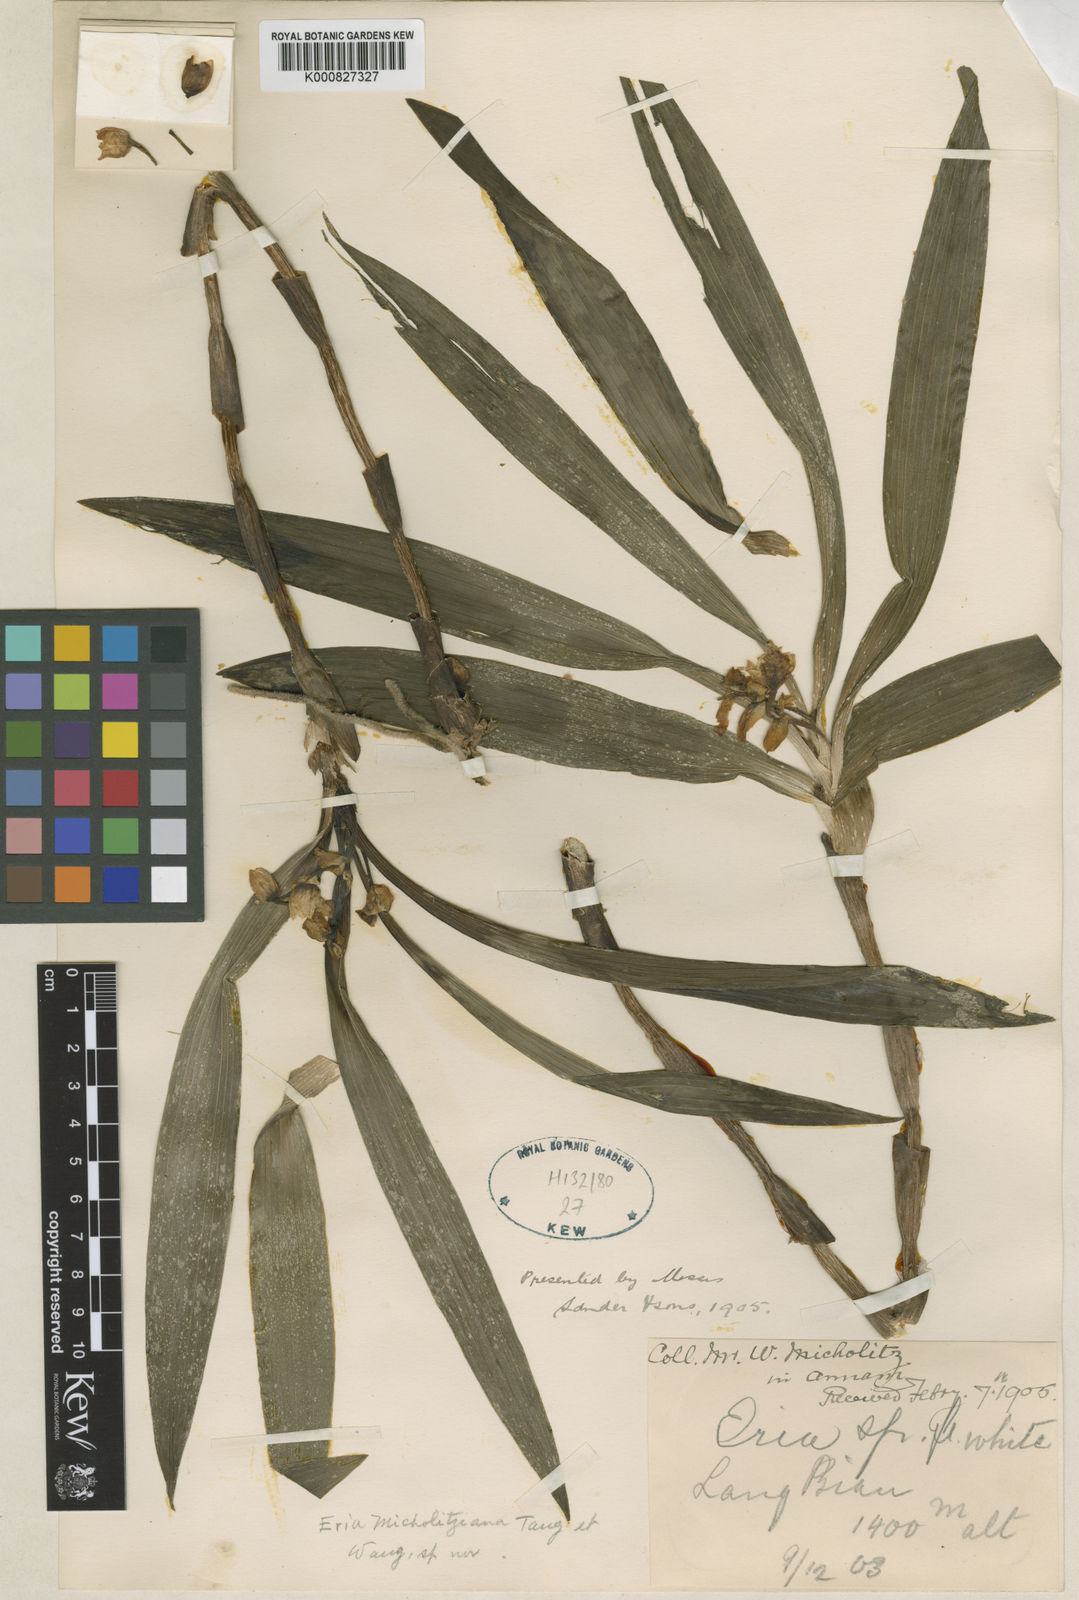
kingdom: Plantae
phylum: Tracheophyta
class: Liliopsida
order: Asparagales
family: Orchidaceae
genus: Eria
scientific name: Eria
